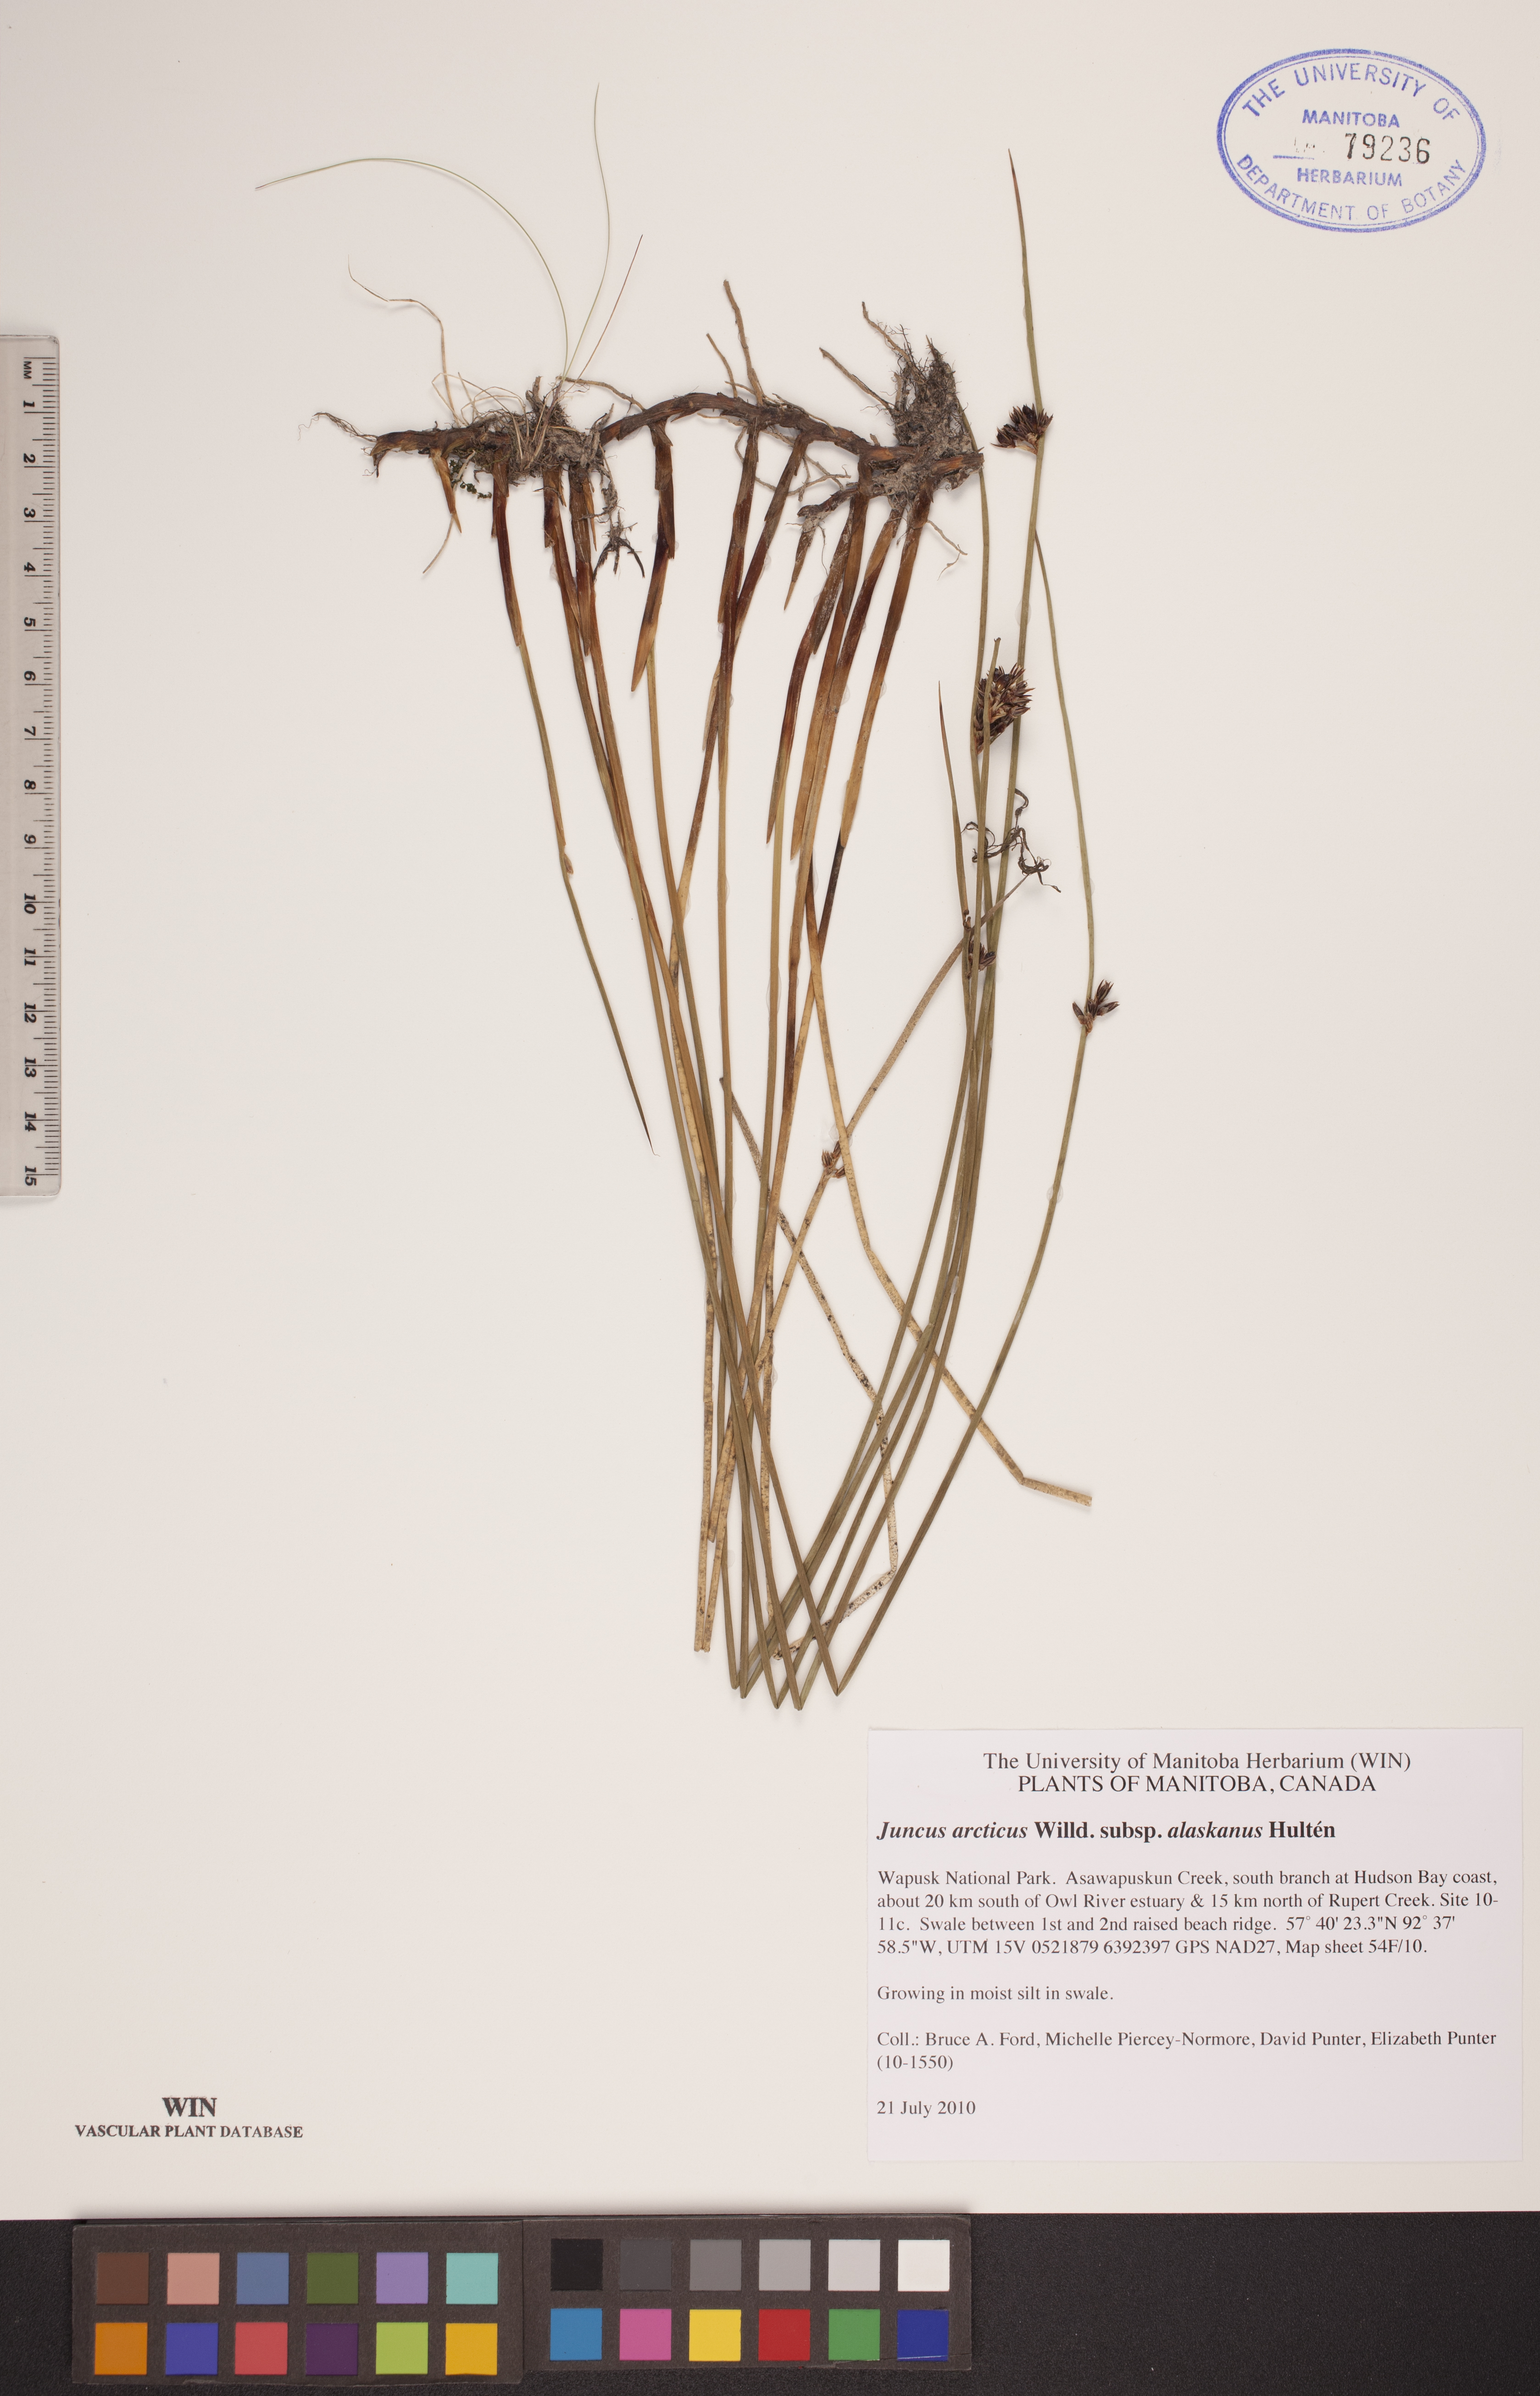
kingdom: Plantae
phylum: Tracheophyta
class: Liliopsida
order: Poales
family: Juncaceae
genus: Juncus
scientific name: Juncus arcticus
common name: Arctic rush
